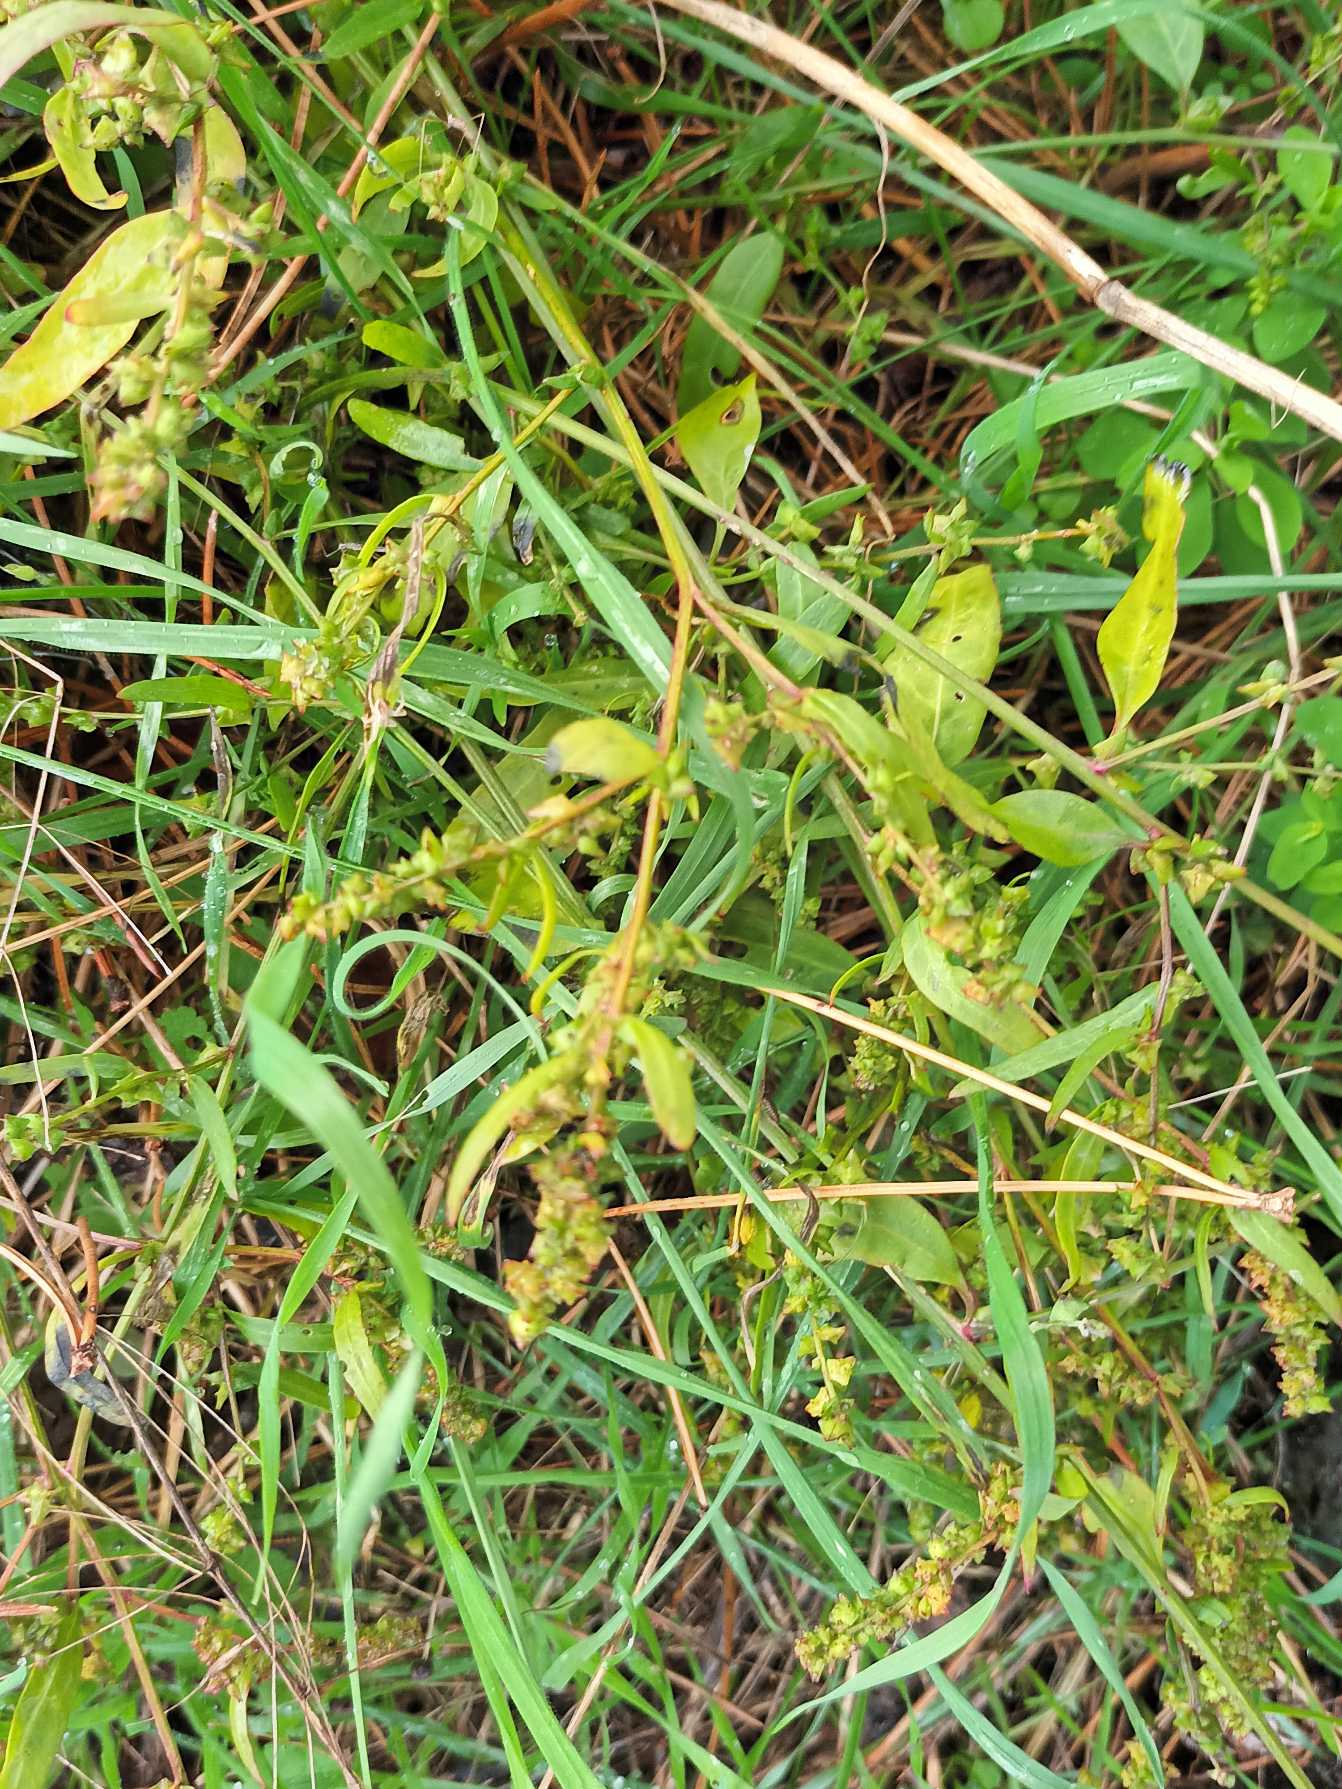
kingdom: Plantae
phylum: Tracheophyta
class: Magnoliopsida
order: Caryophyllales
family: Amaranthaceae
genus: Atriplex
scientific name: Atriplex patula
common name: Svine-mælde
